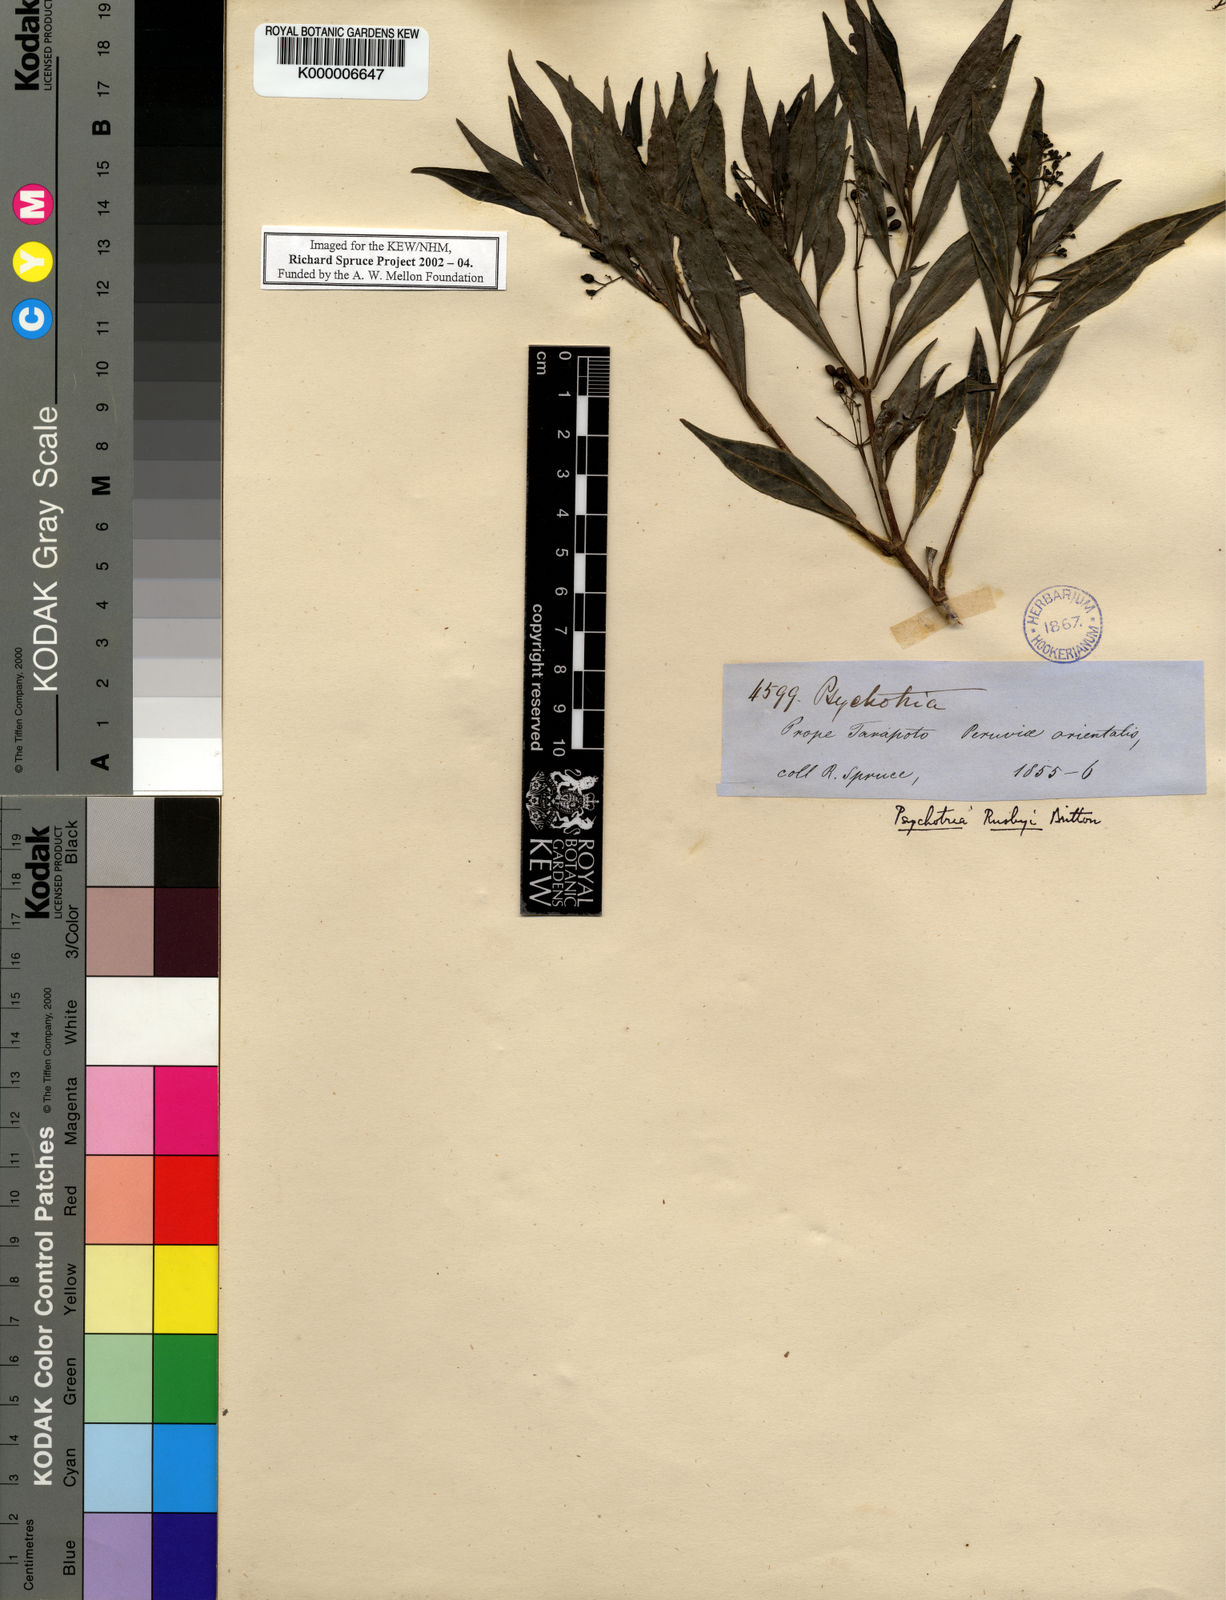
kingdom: Plantae
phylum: Tracheophyta
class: Magnoliopsida
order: Gentianales
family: Rubiaceae
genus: Psychotria
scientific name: Psychotria
